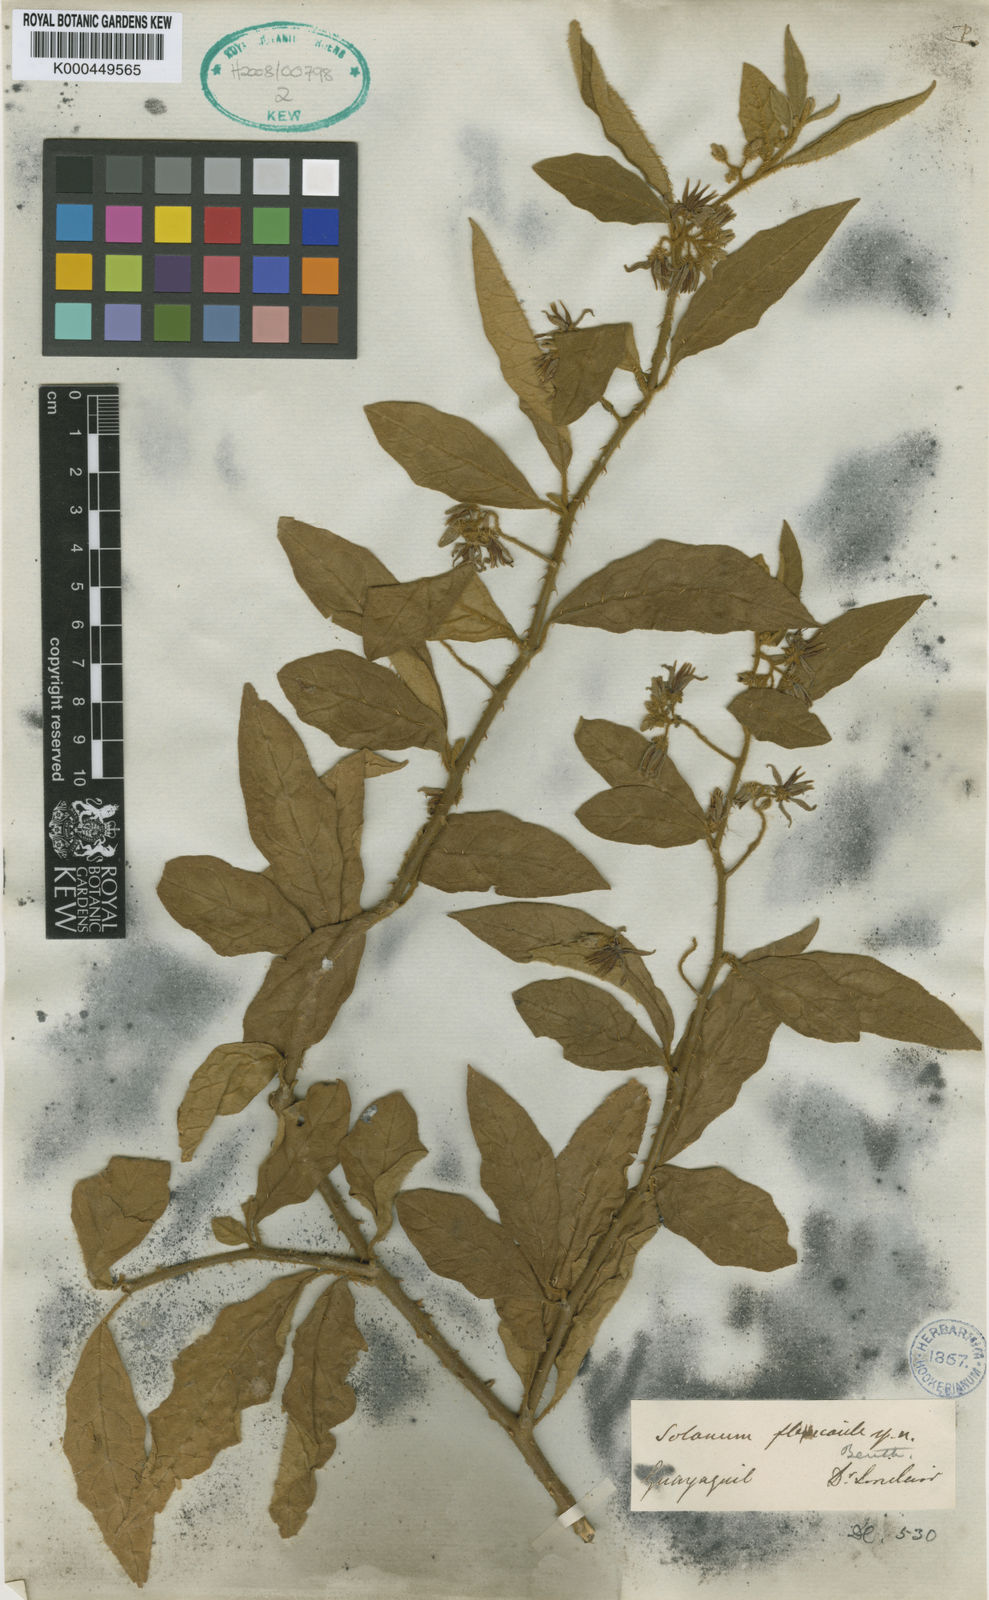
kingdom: Plantae
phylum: Tracheophyta
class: Magnoliopsida
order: Solanales
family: Solanaceae
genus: Solanum
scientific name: Solanum flexicaule
